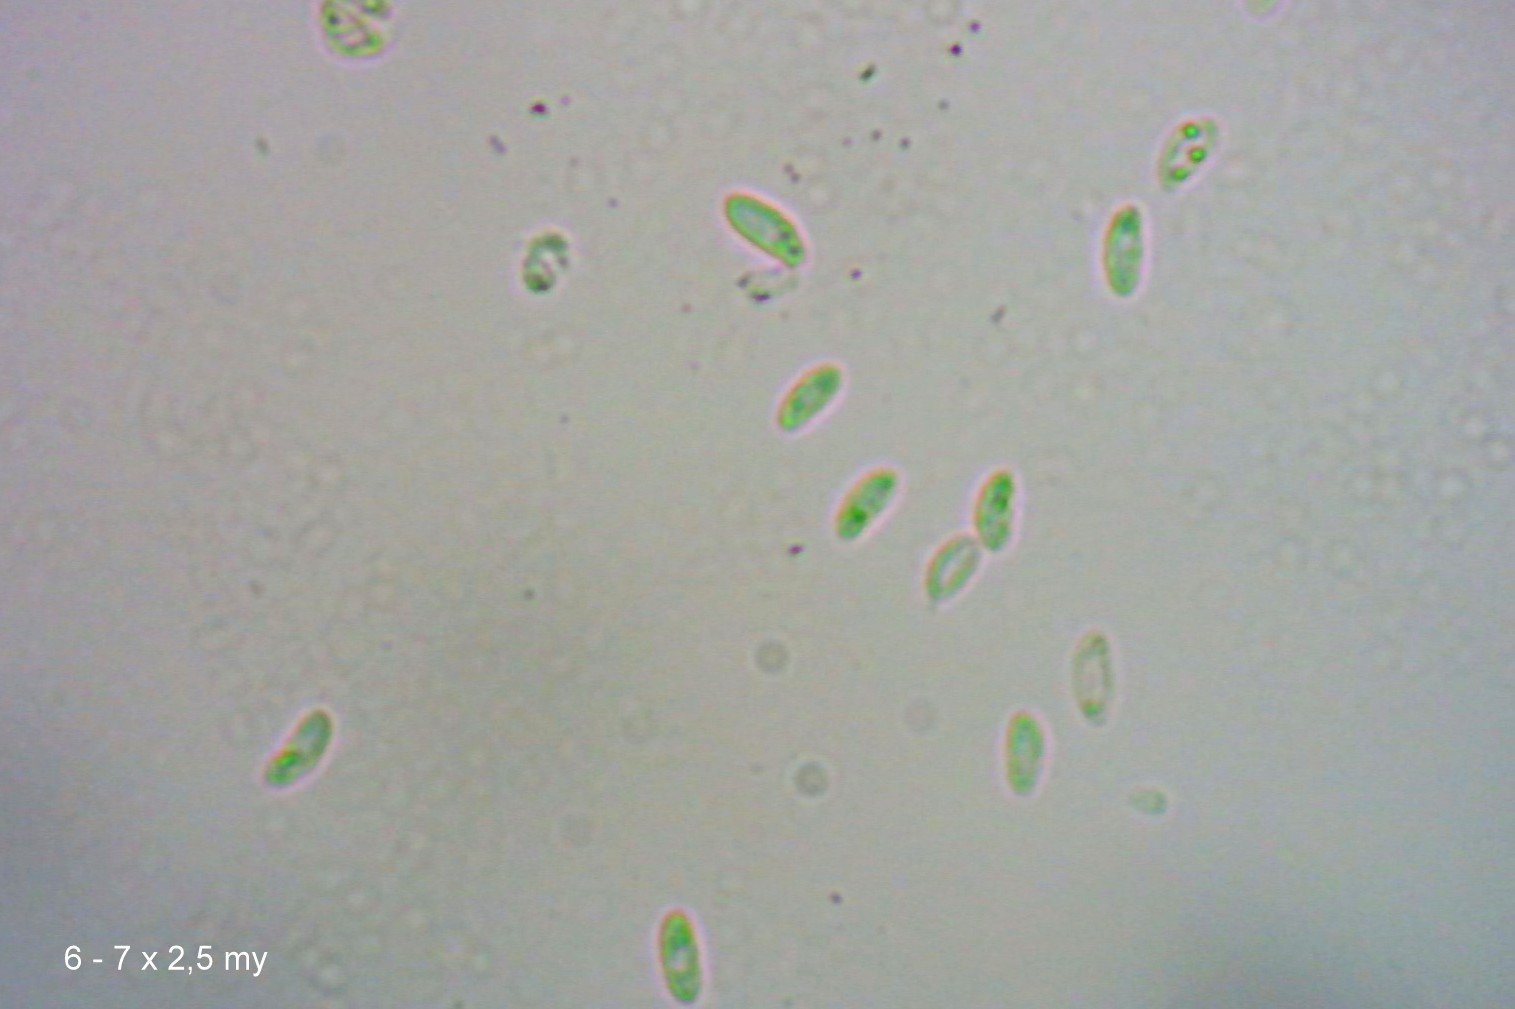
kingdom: Fungi
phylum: Basidiomycota
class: Agaricomycetes
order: Agaricales
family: Crepidotaceae
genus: Crepidotus
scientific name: Crepidotus epibryus
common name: førne-muslingesvamp
